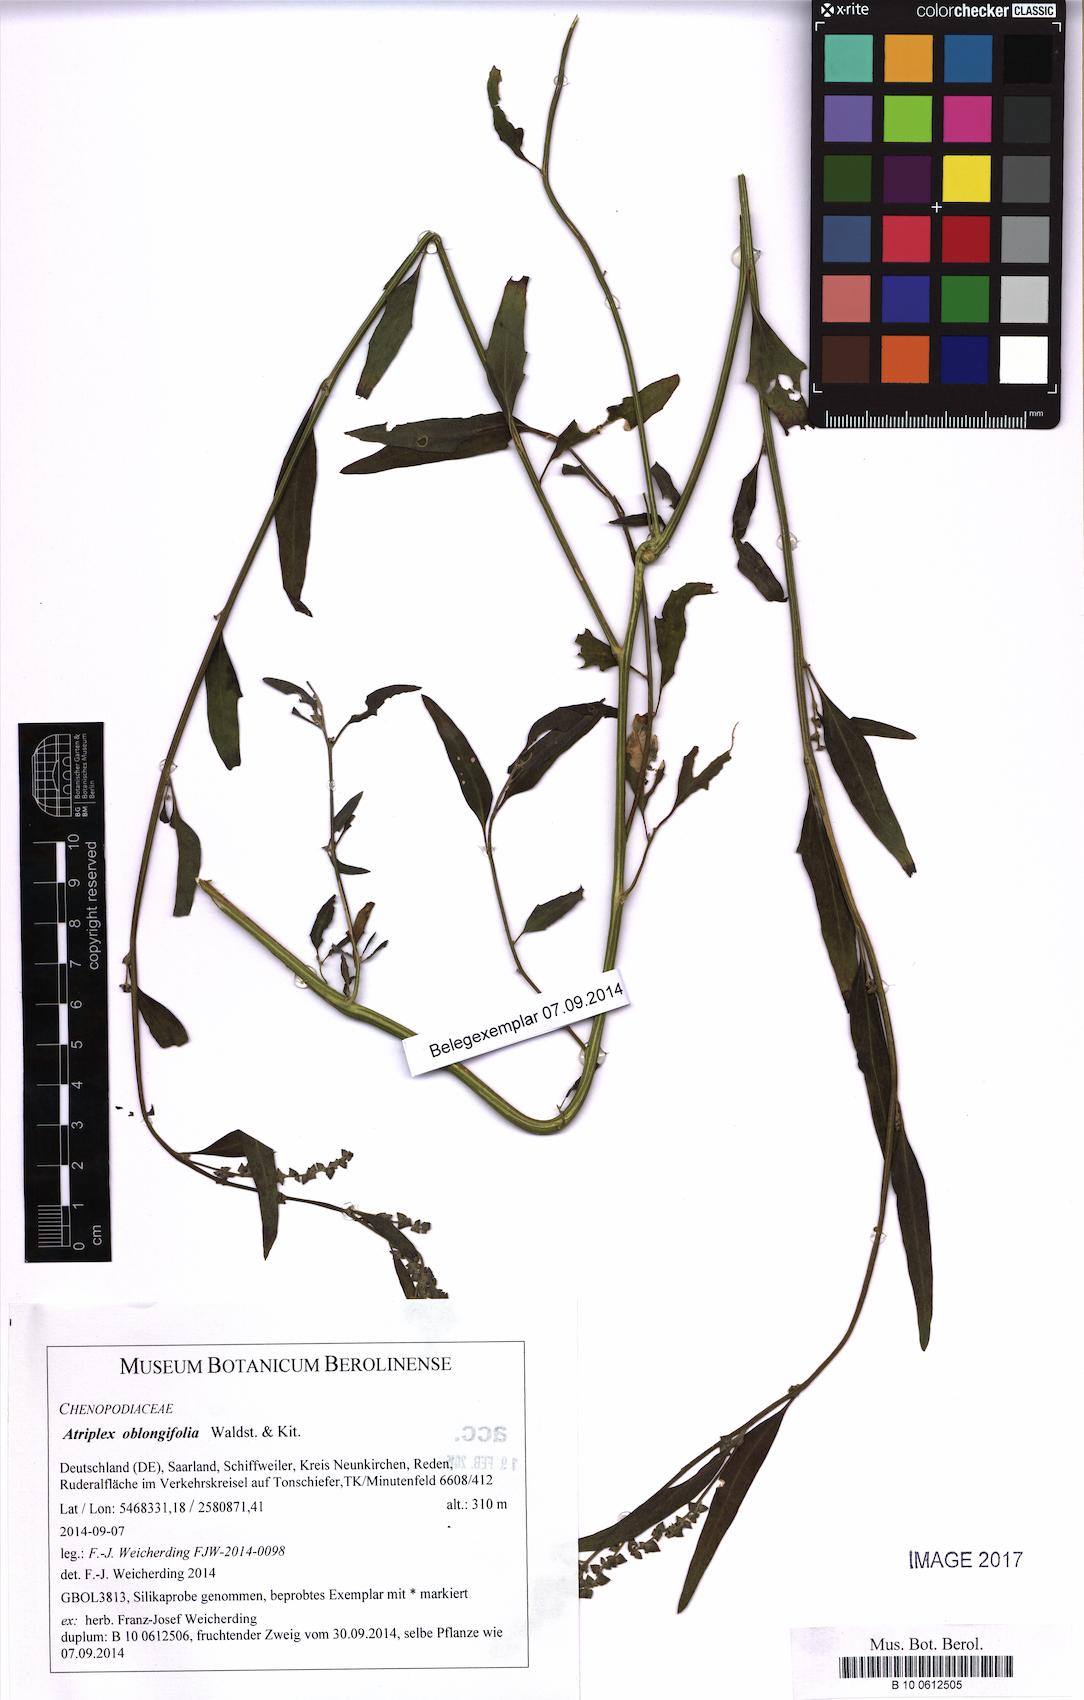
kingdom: Plantae
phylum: Tracheophyta
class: Magnoliopsida
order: Caryophyllales
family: Amaranthaceae
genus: Atriplex
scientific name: Atriplex oblongifolia
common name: Oblongleaf orache
